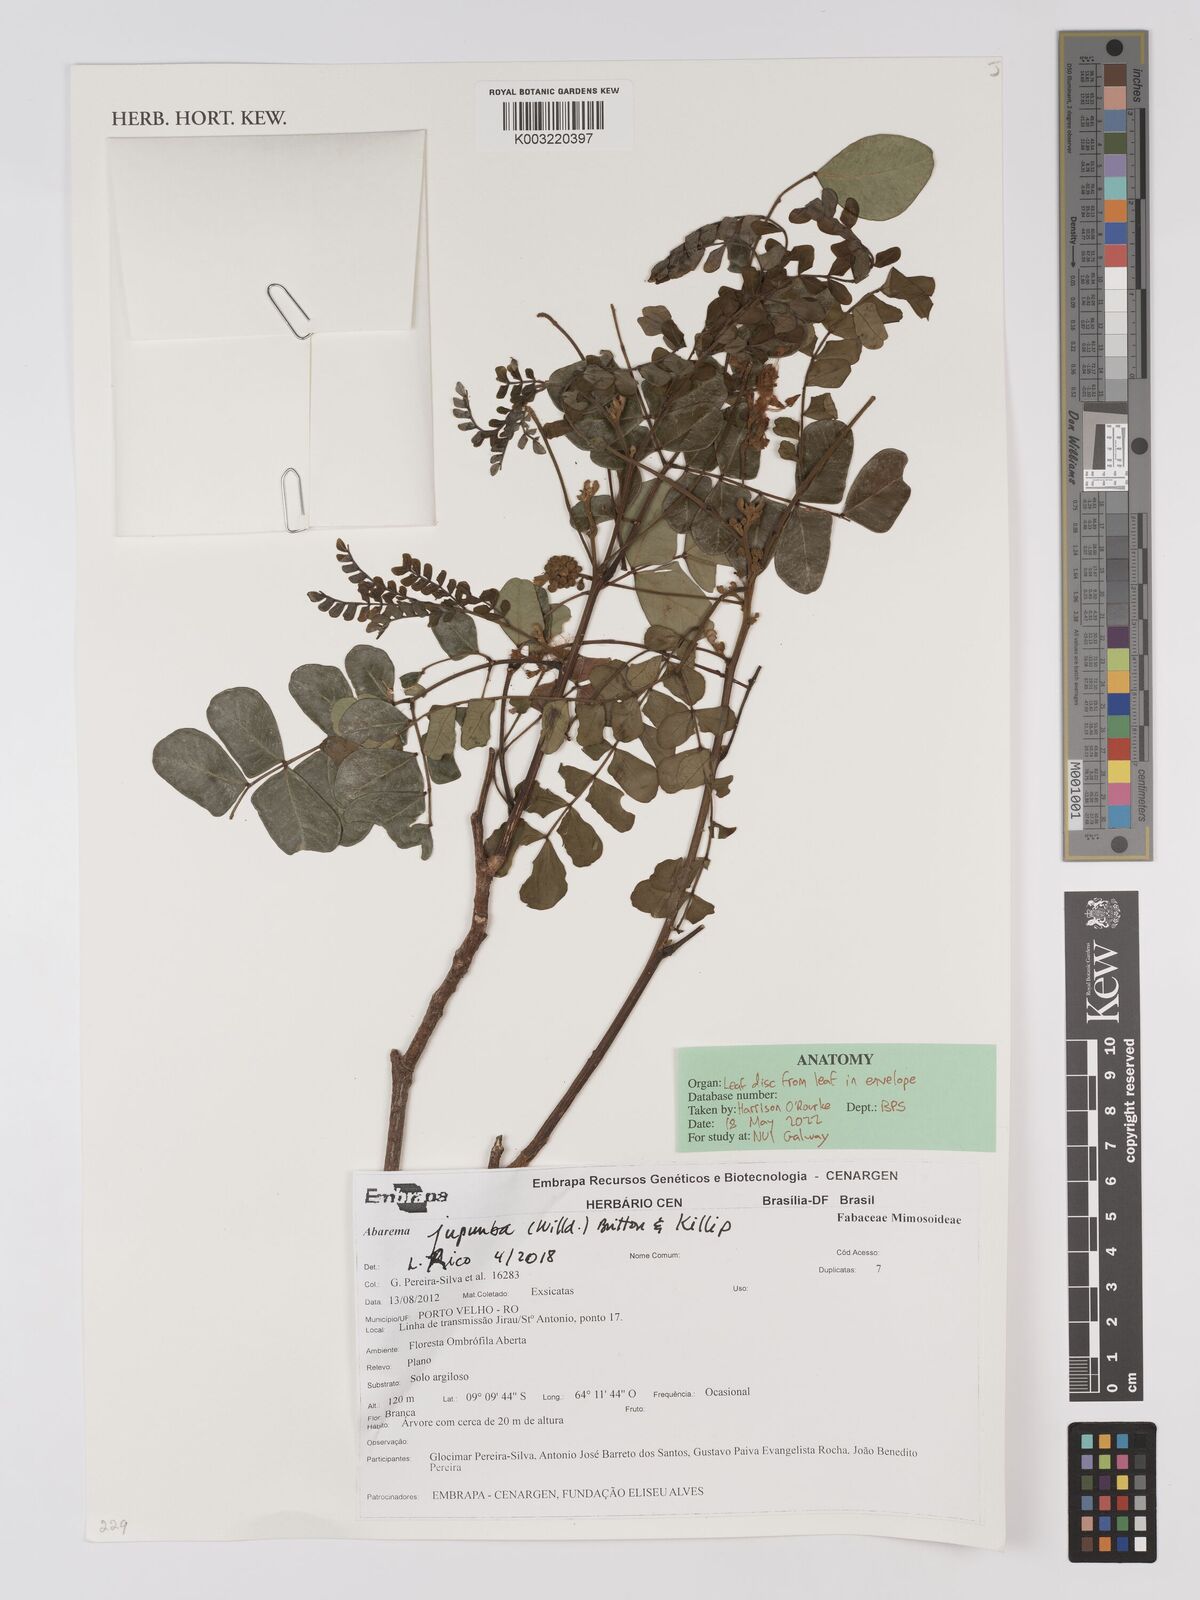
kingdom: Plantae
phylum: Tracheophyta
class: Magnoliopsida
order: Fabales
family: Fabaceae
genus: Jupunba
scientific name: Jupunba trapezifolia
